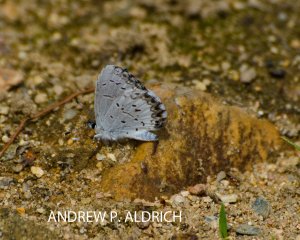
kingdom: Animalia
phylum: Arthropoda
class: Insecta
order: Lepidoptera
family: Lycaenidae
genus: Celastrina
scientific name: Celastrina ladon
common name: Spring Azure
